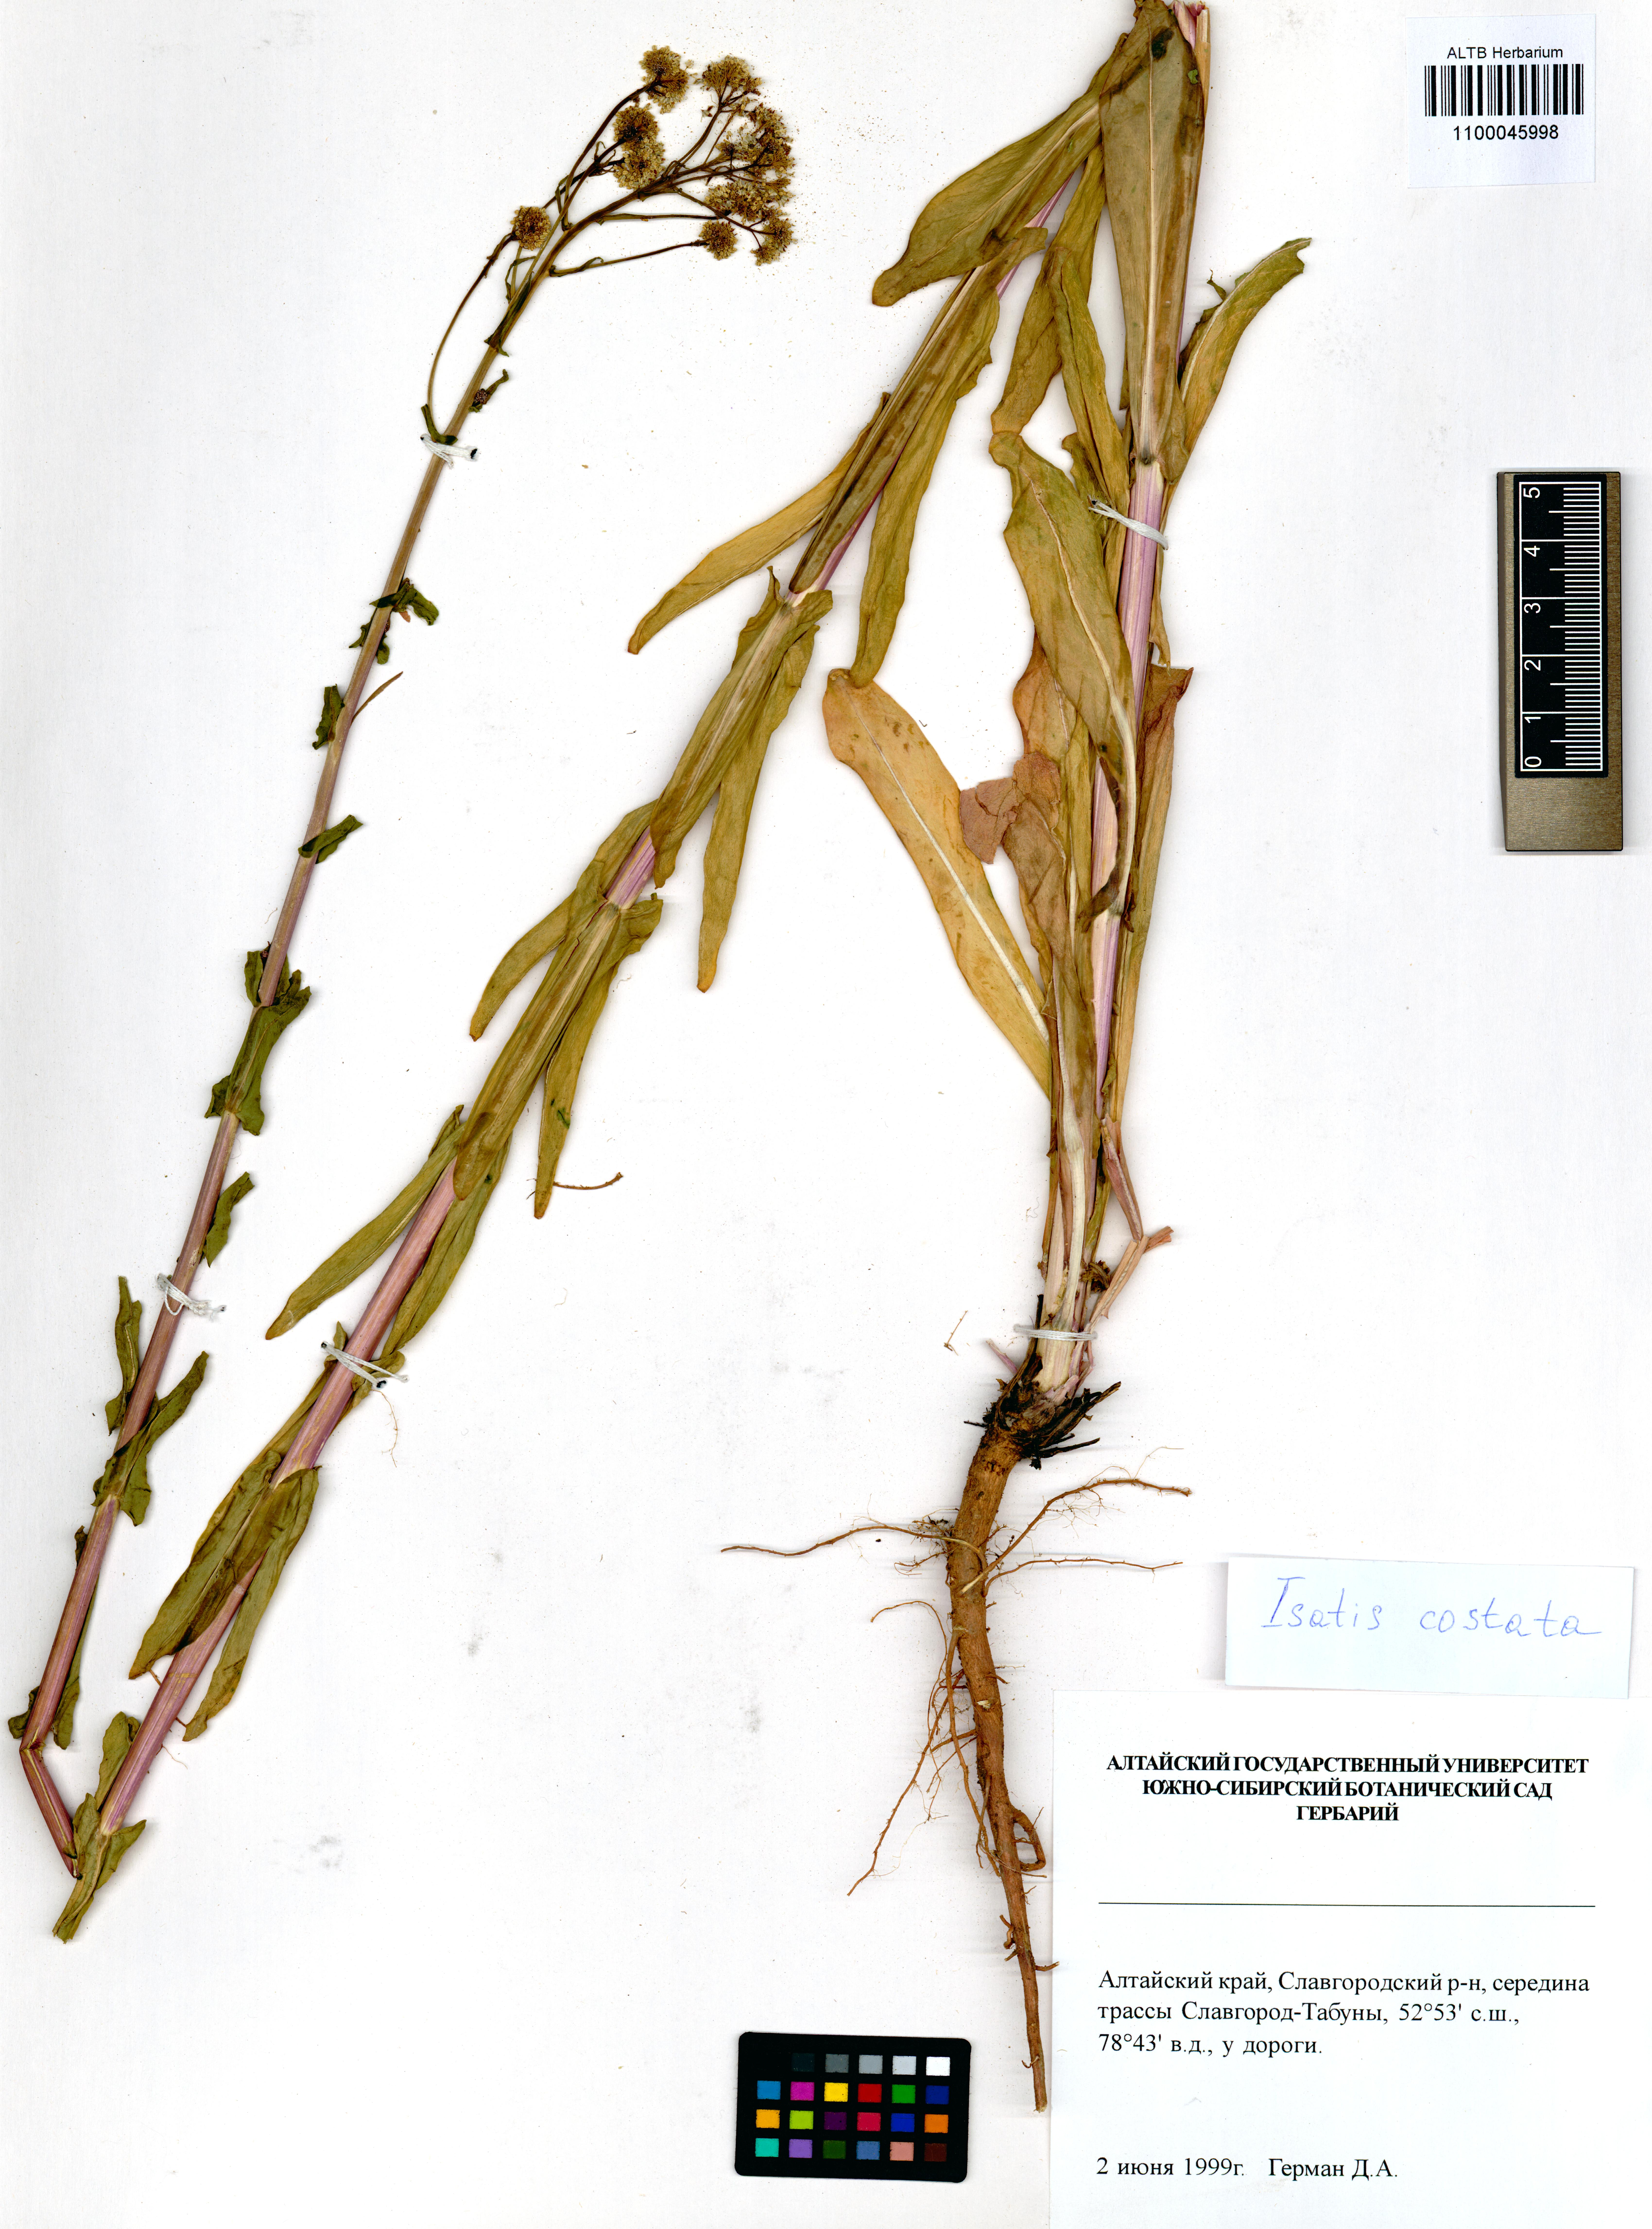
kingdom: Plantae
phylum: Tracheophyta
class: Magnoliopsida
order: Brassicales
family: Brassicaceae
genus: Isatis
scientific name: Isatis costata
